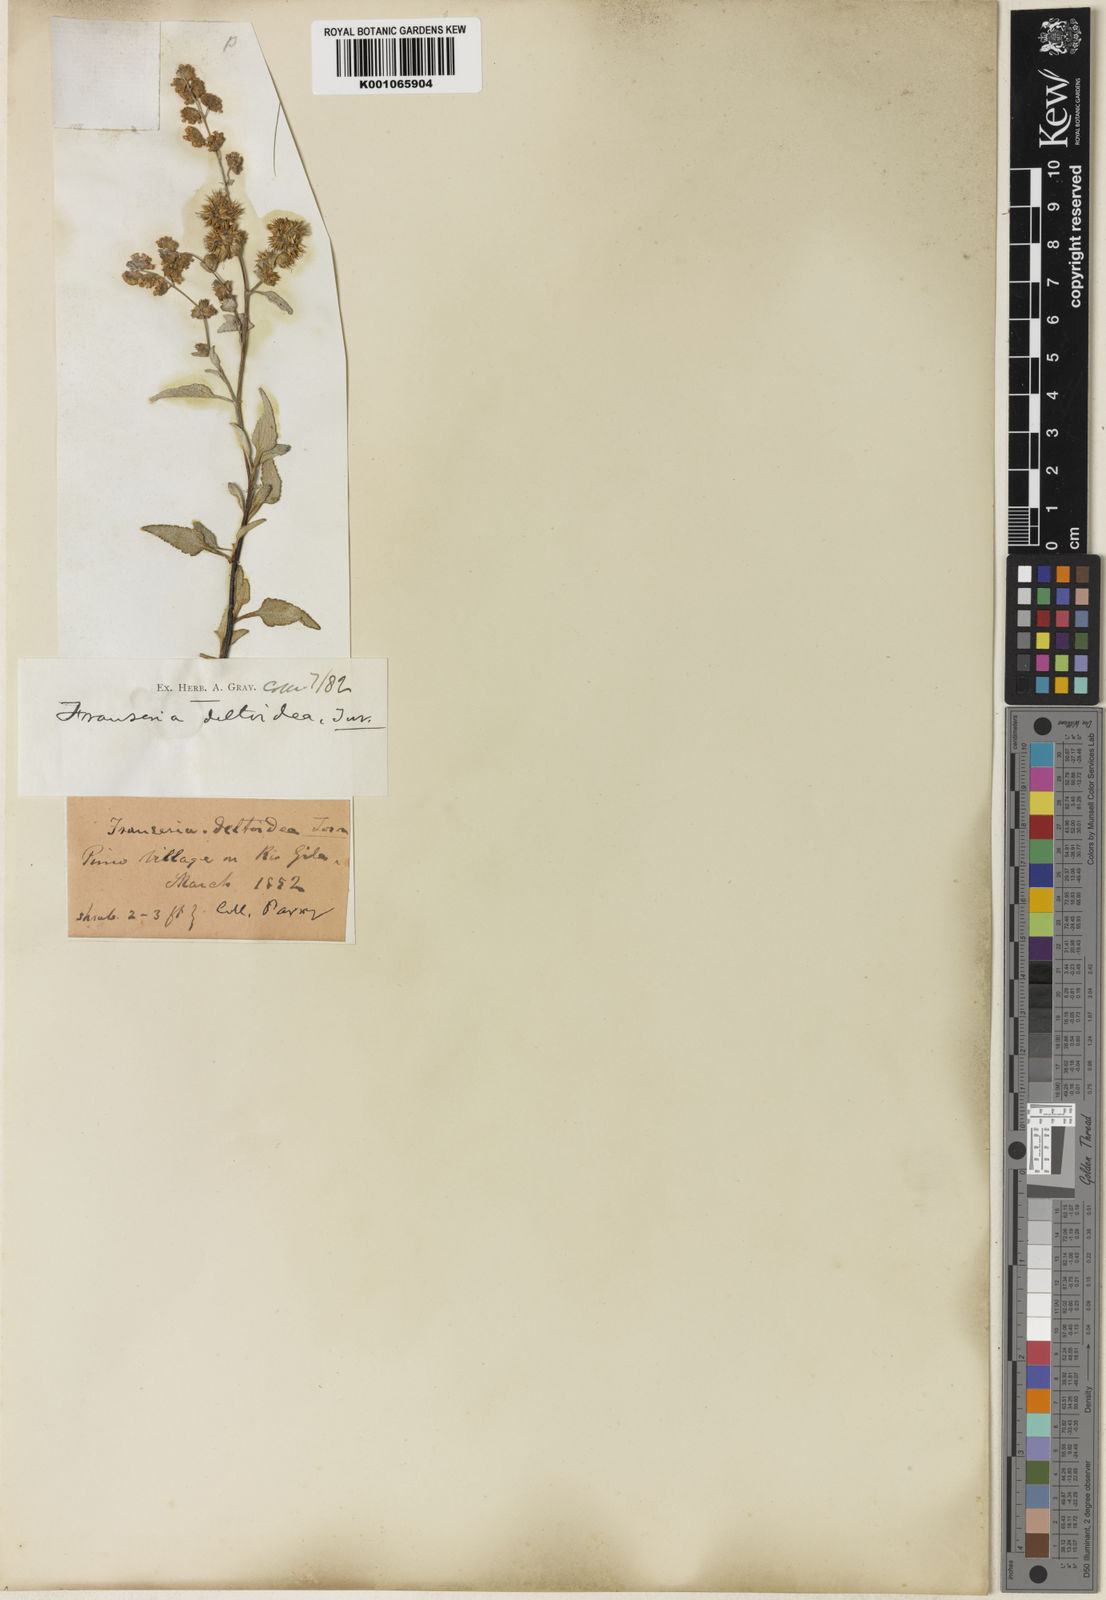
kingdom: Plantae
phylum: Tracheophyta
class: Magnoliopsida
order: Asterales
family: Asteraceae
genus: Ambrosia
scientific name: Ambrosia deltoidea
